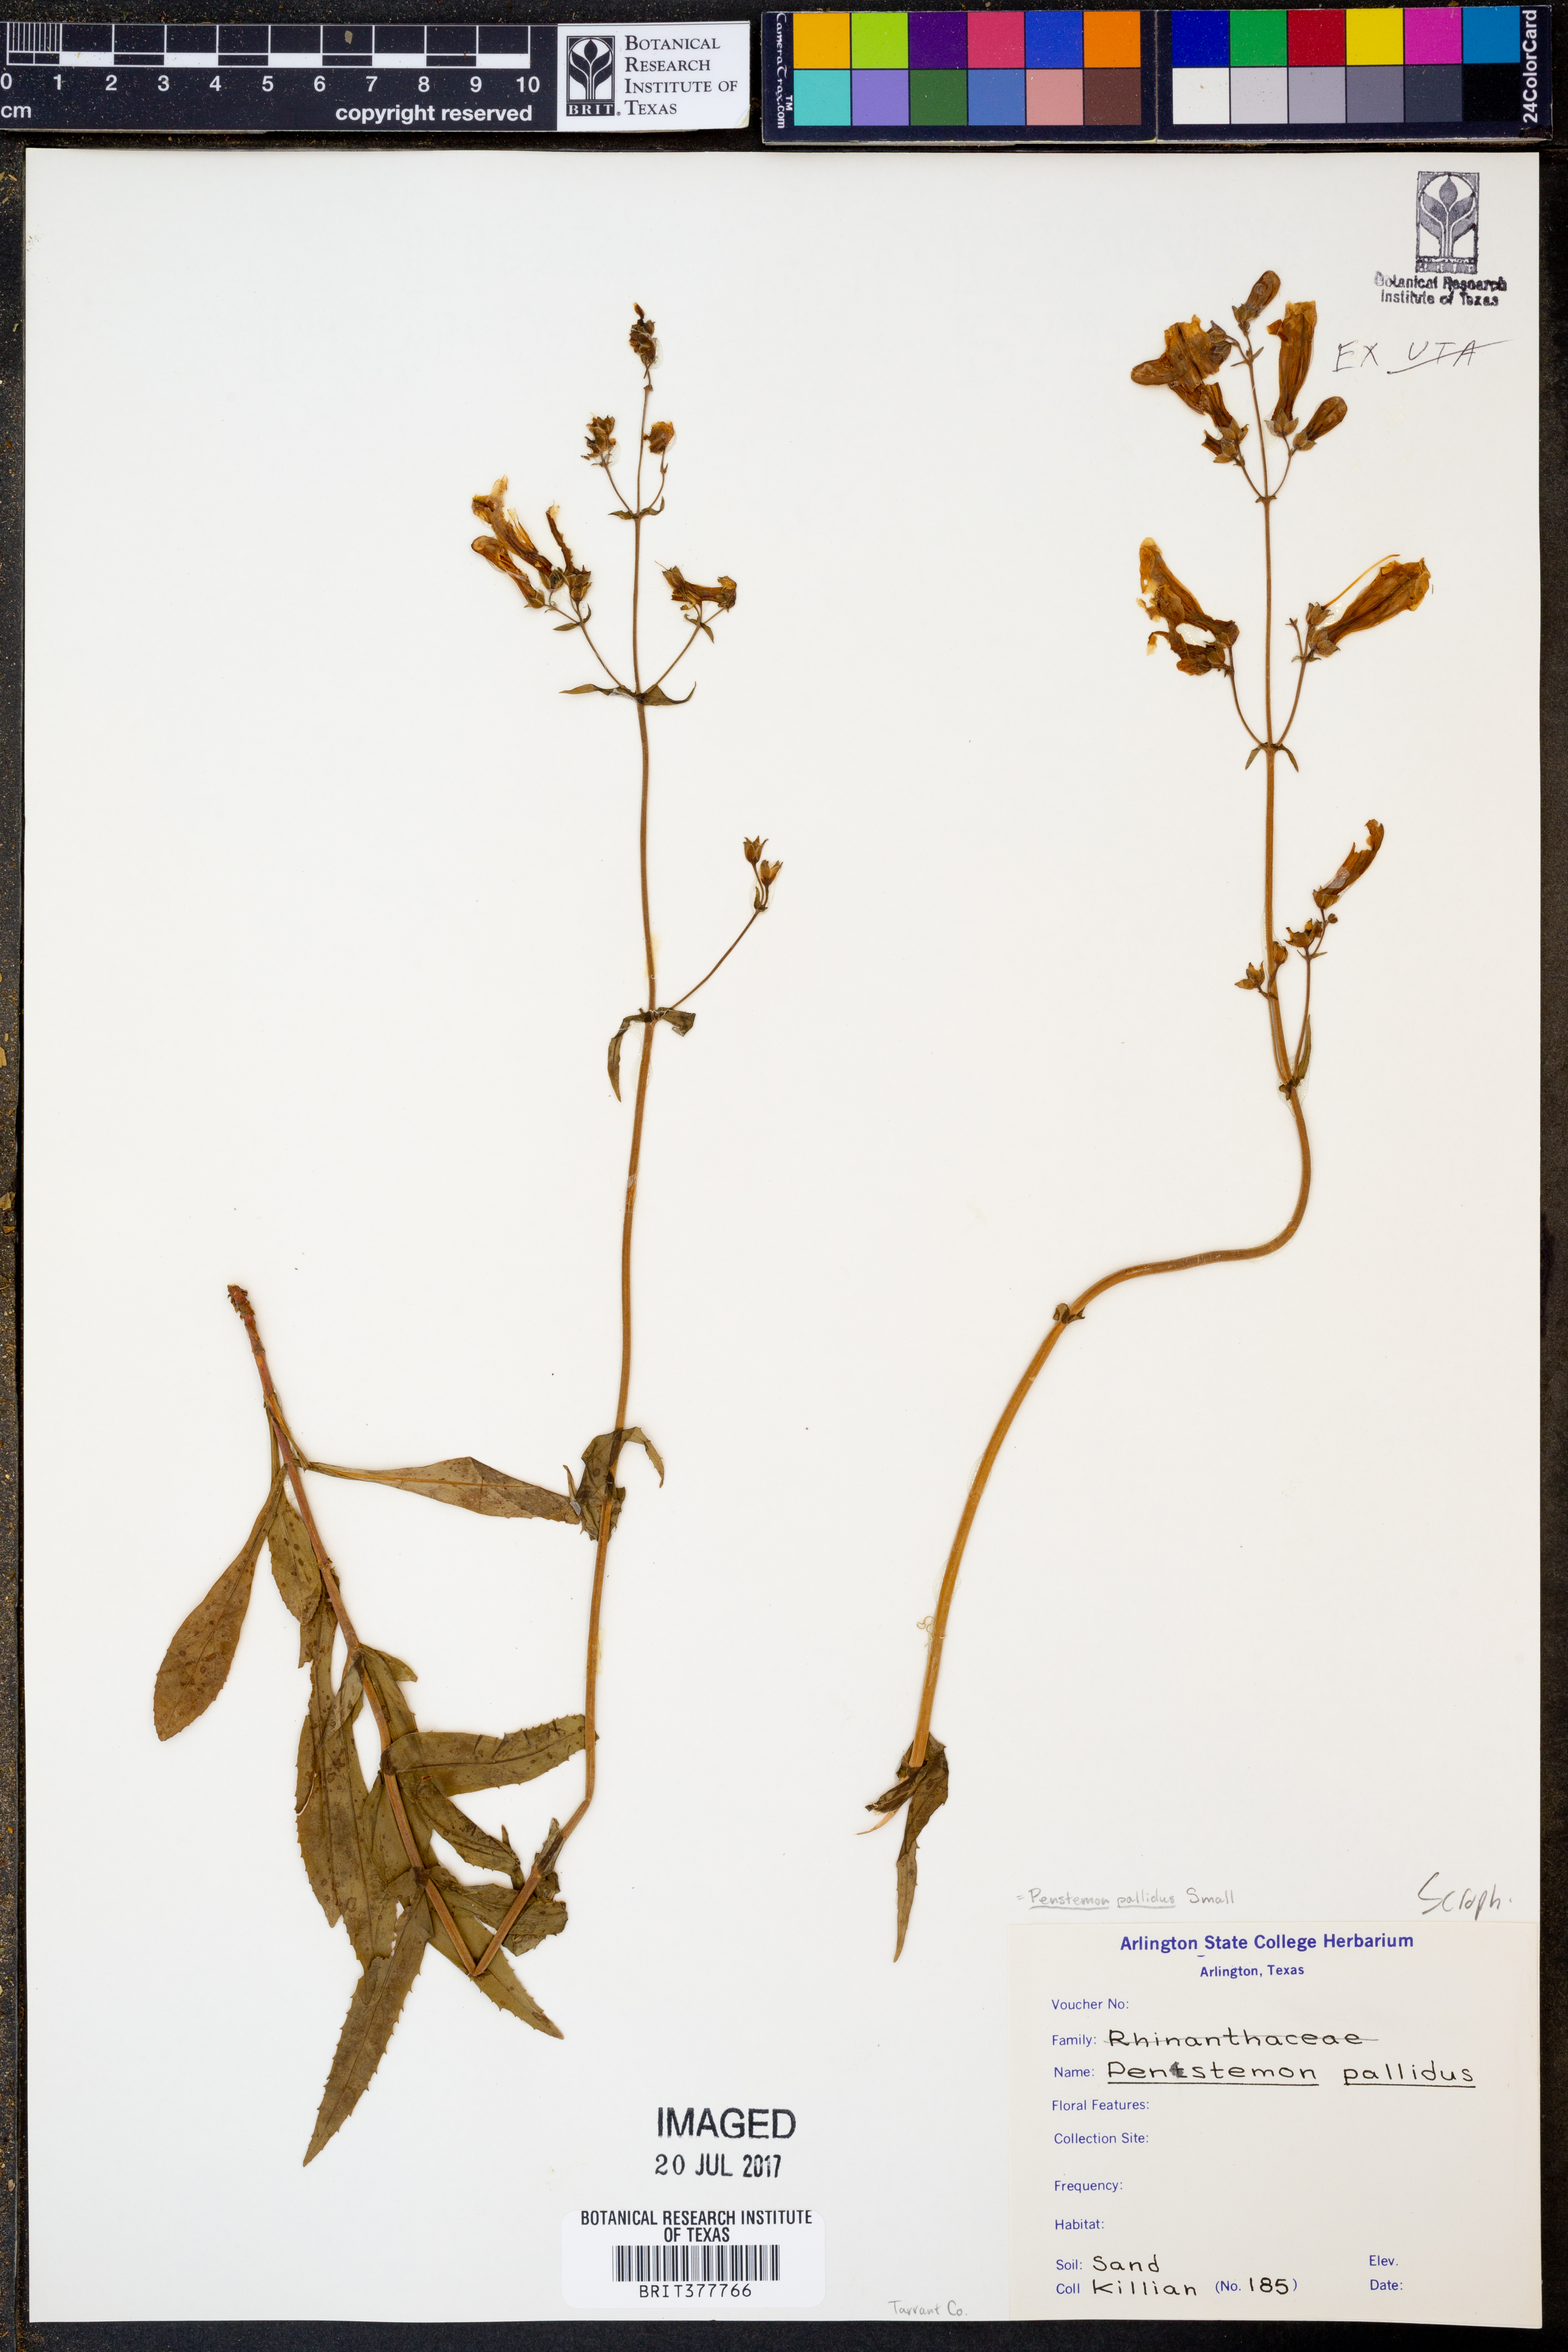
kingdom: Plantae
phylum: Tracheophyta
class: Magnoliopsida
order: Lamiales
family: Plantaginaceae
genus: Penstemon
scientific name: Penstemon pallidus
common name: Pale beardtongue
